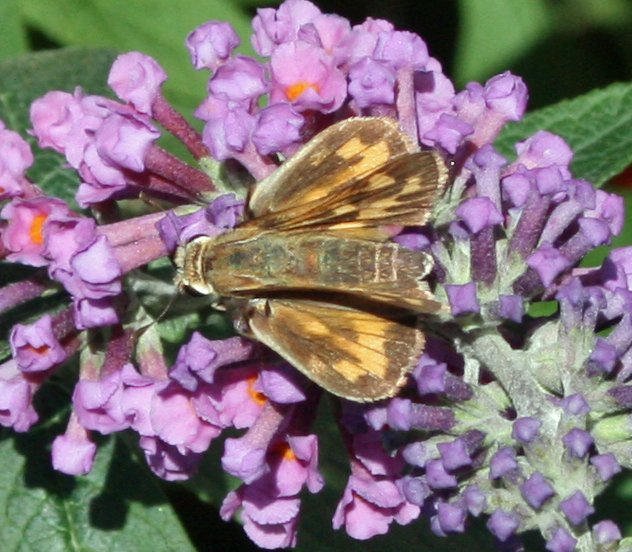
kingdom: Animalia
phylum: Arthropoda
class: Insecta
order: Lepidoptera
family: Hesperiidae
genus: Hylephila
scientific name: Hylephila phyleus
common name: Fiery Skipper
